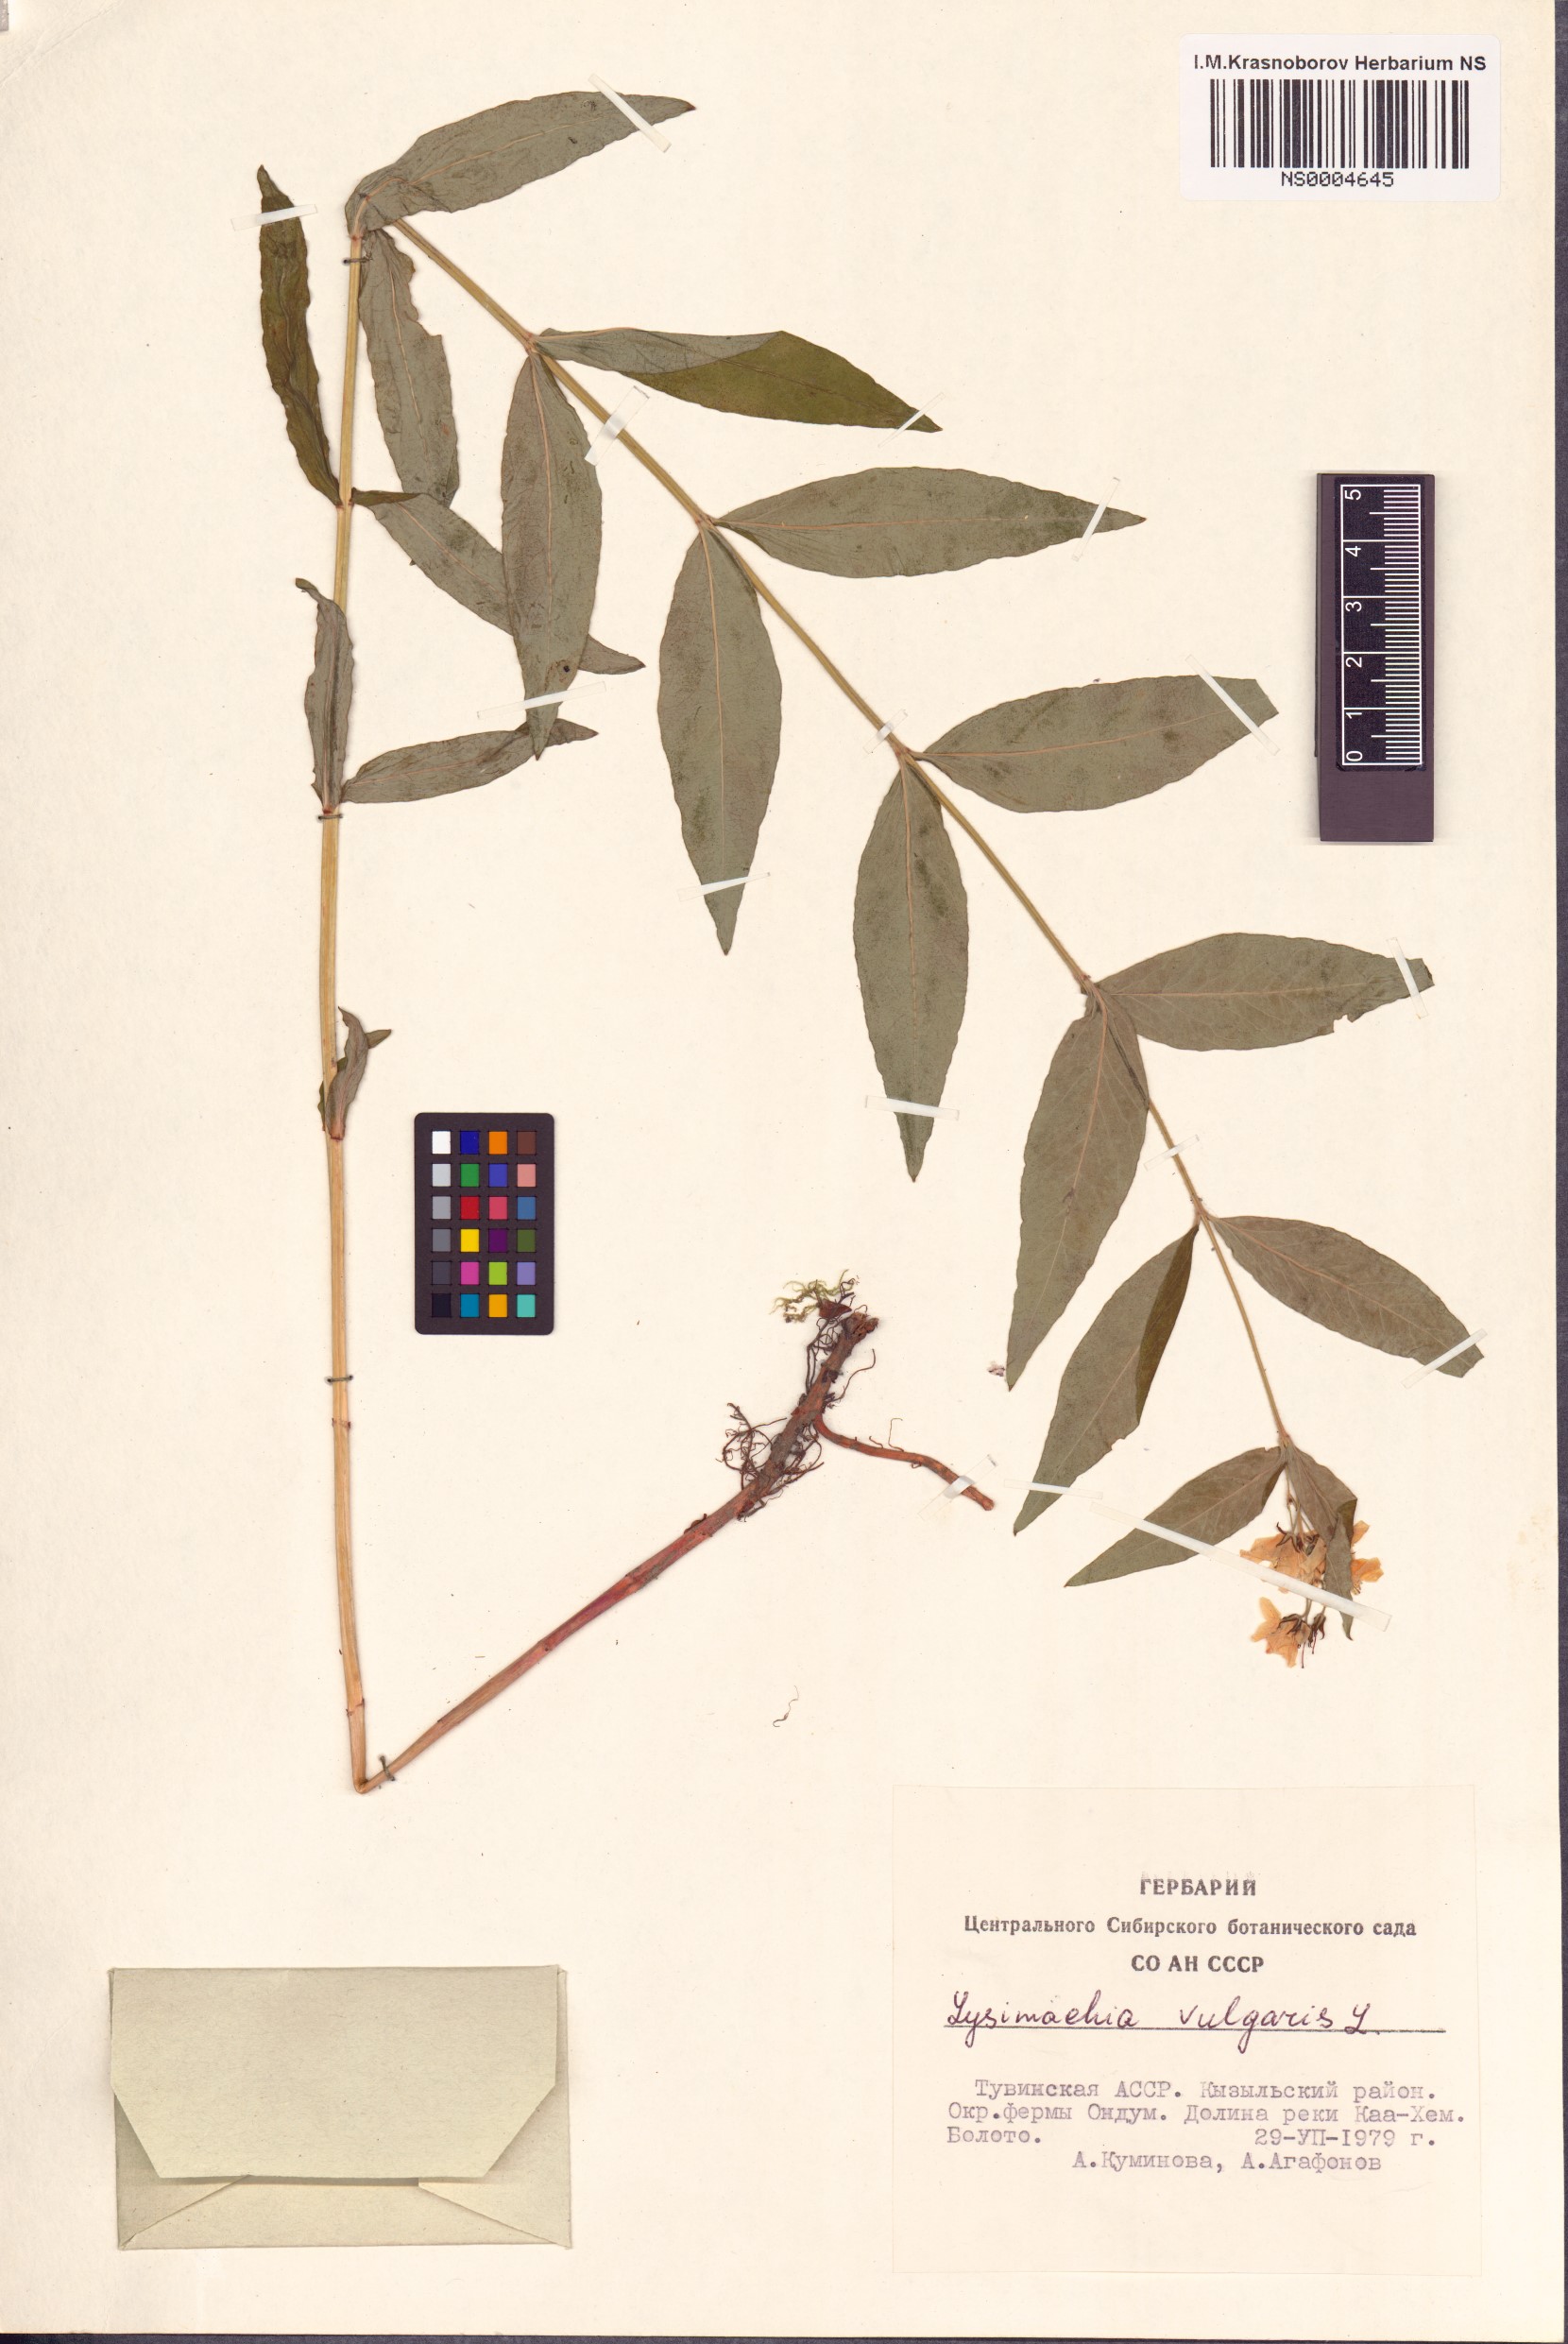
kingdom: Plantae
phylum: Tracheophyta
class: Magnoliopsida
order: Ericales
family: Primulaceae
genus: Lysimachia
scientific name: Lysimachia vulgaris
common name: Yellow loosestrife
